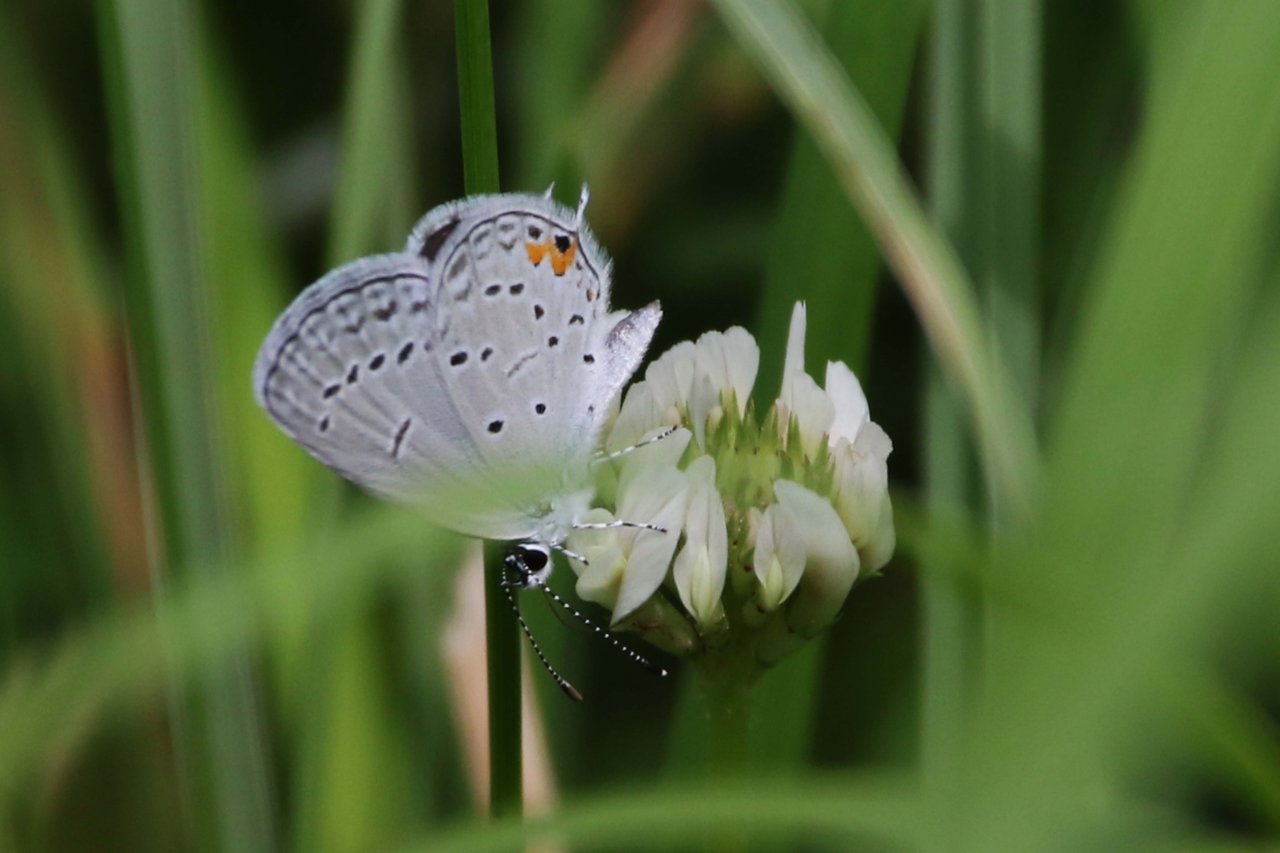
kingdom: Animalia
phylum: Arthropoda
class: Insecta
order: Lepidoptera
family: Lycaenidae
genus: Elkalyce
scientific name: Elkalyce comyntas
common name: Eastern Tailed-Blue
